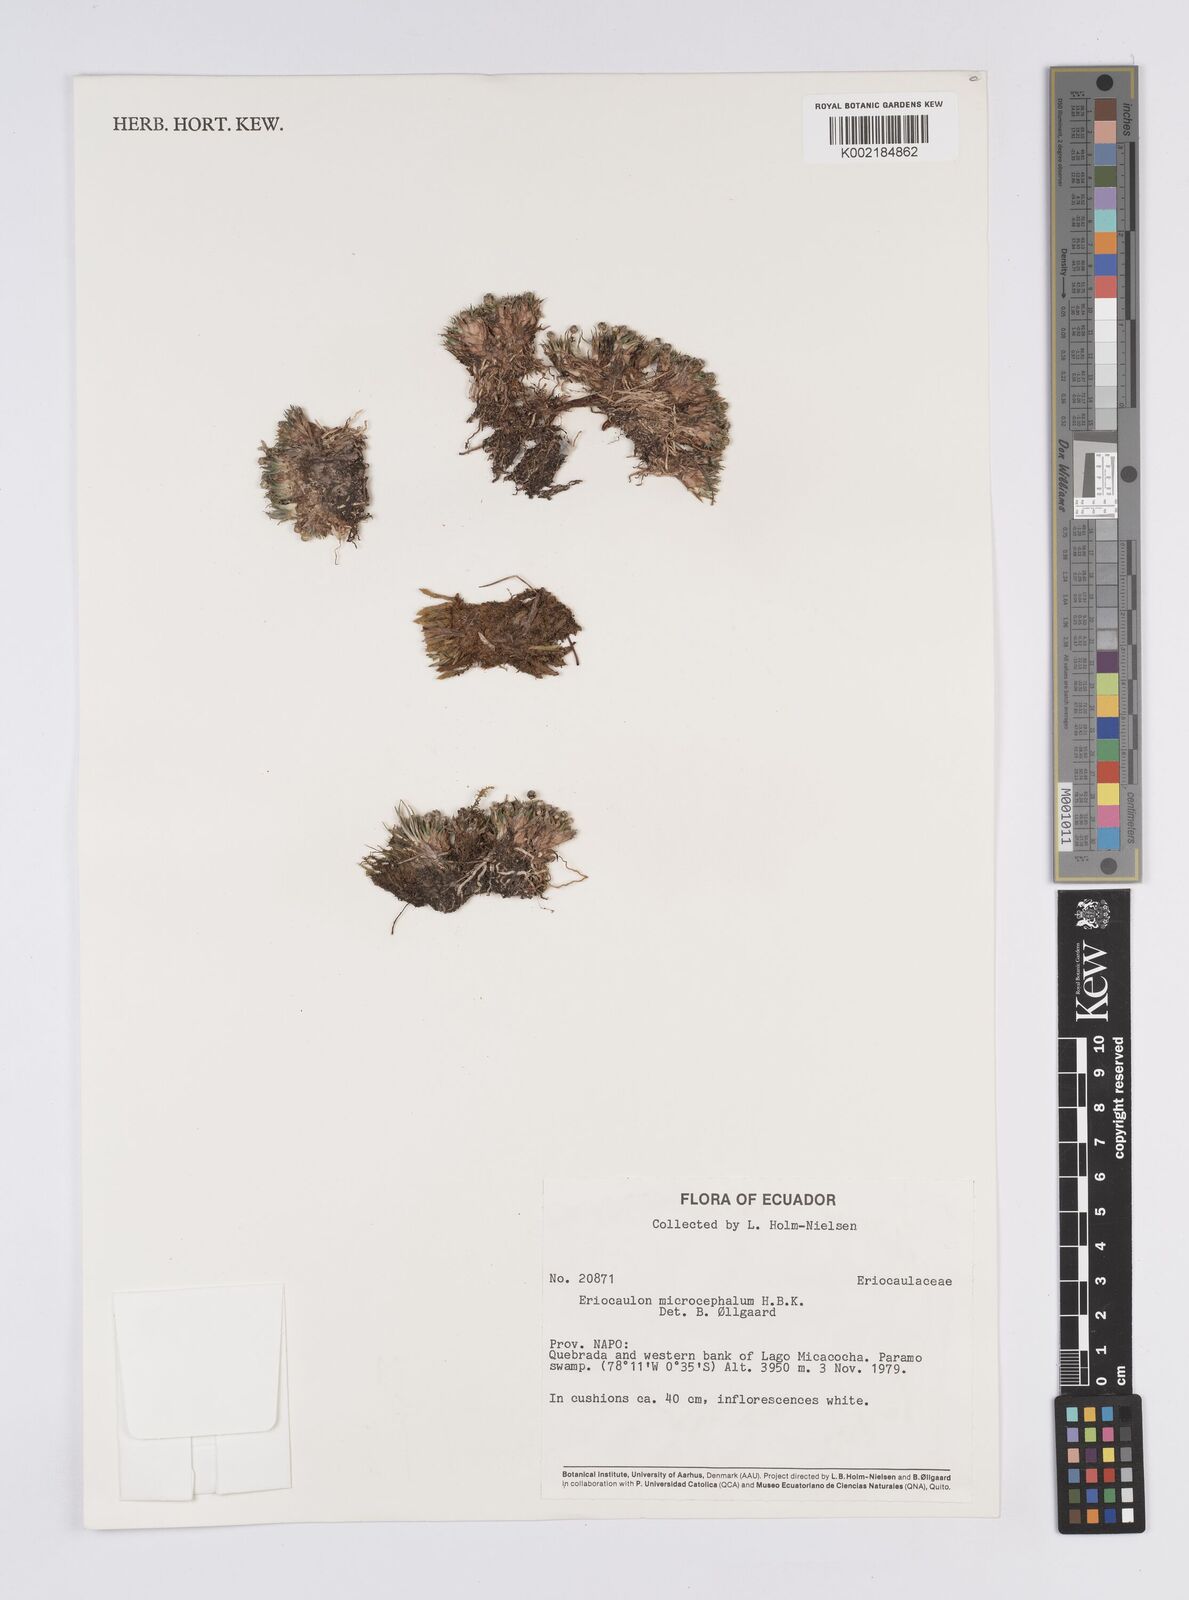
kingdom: Plantae
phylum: Tracheophyta
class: Liliopsida
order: Poales
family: Eriocaulaceae
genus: Eriocaulon
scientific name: Eriocaulon benthamii
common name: Bentham's pipewort
